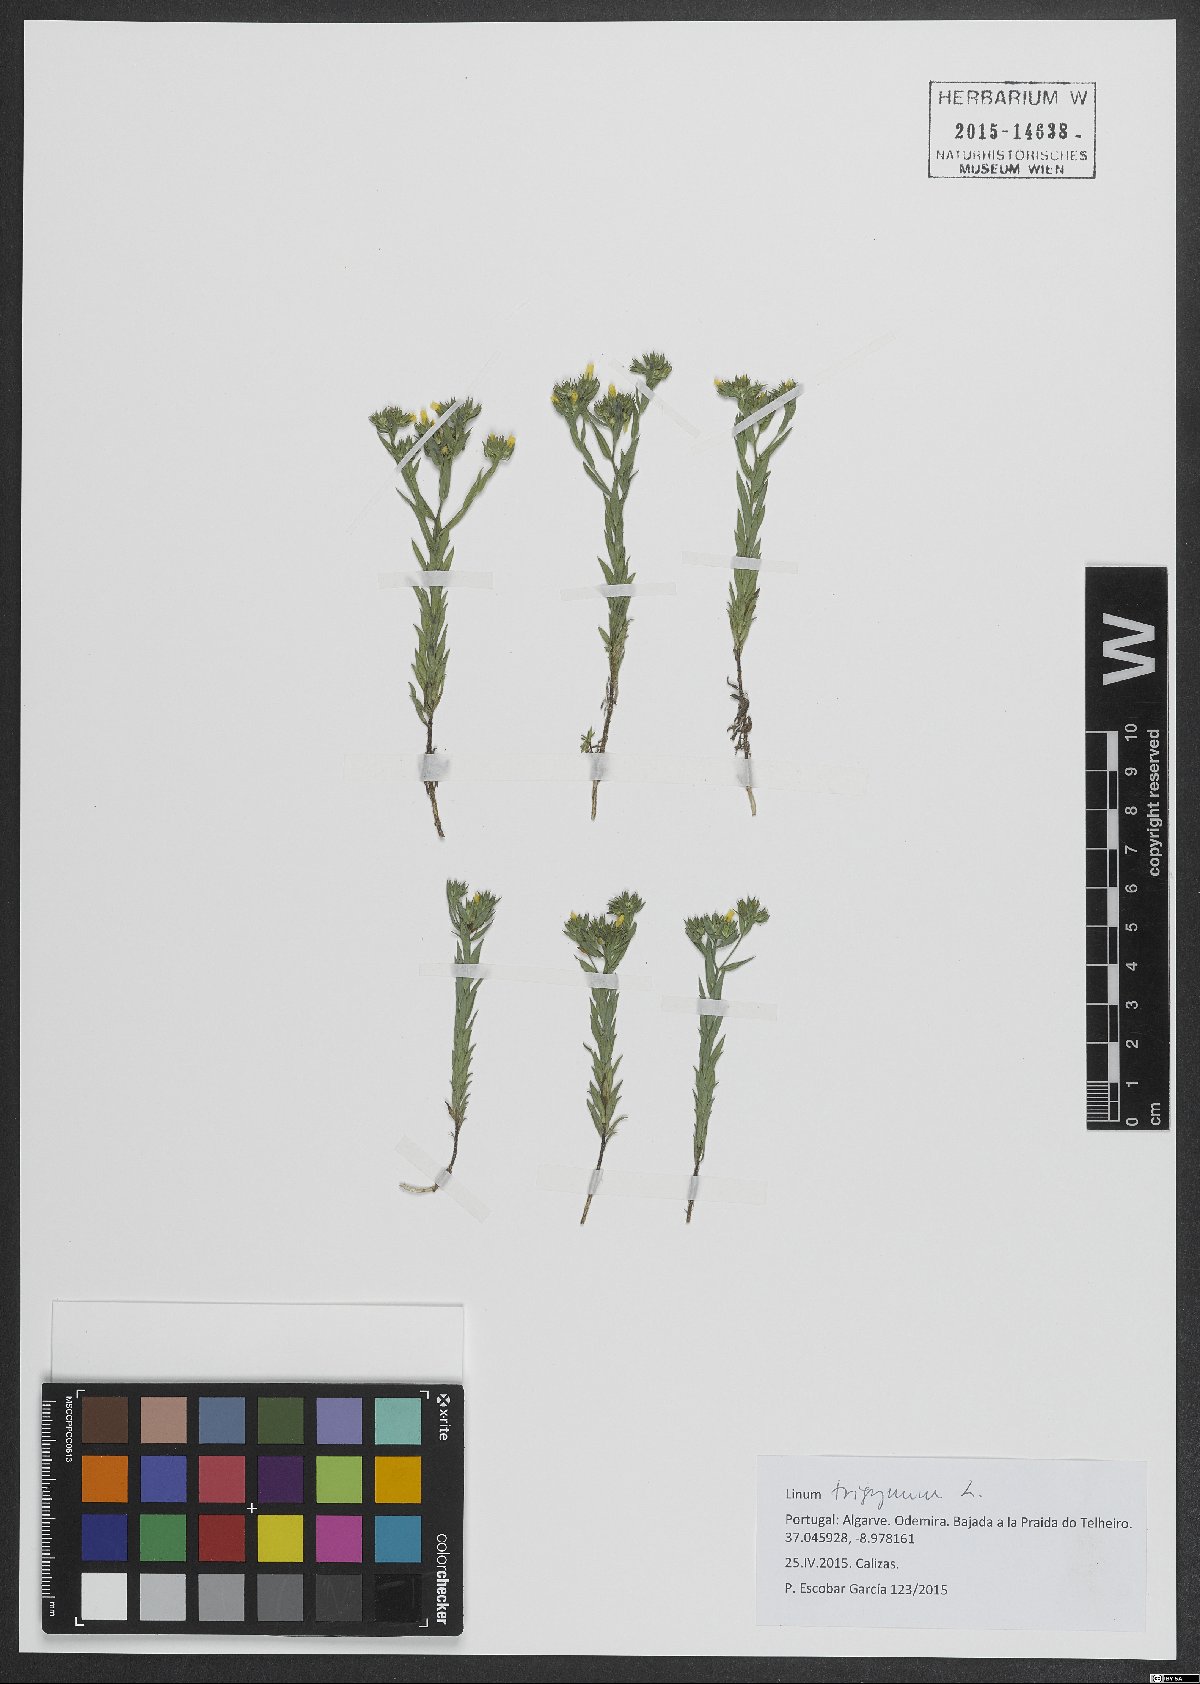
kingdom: Plantae
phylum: Tracheophyta
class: Magnoliopsida
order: Malpighiales
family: Linaceae
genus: Linum
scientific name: Linum trigynum
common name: French flax
